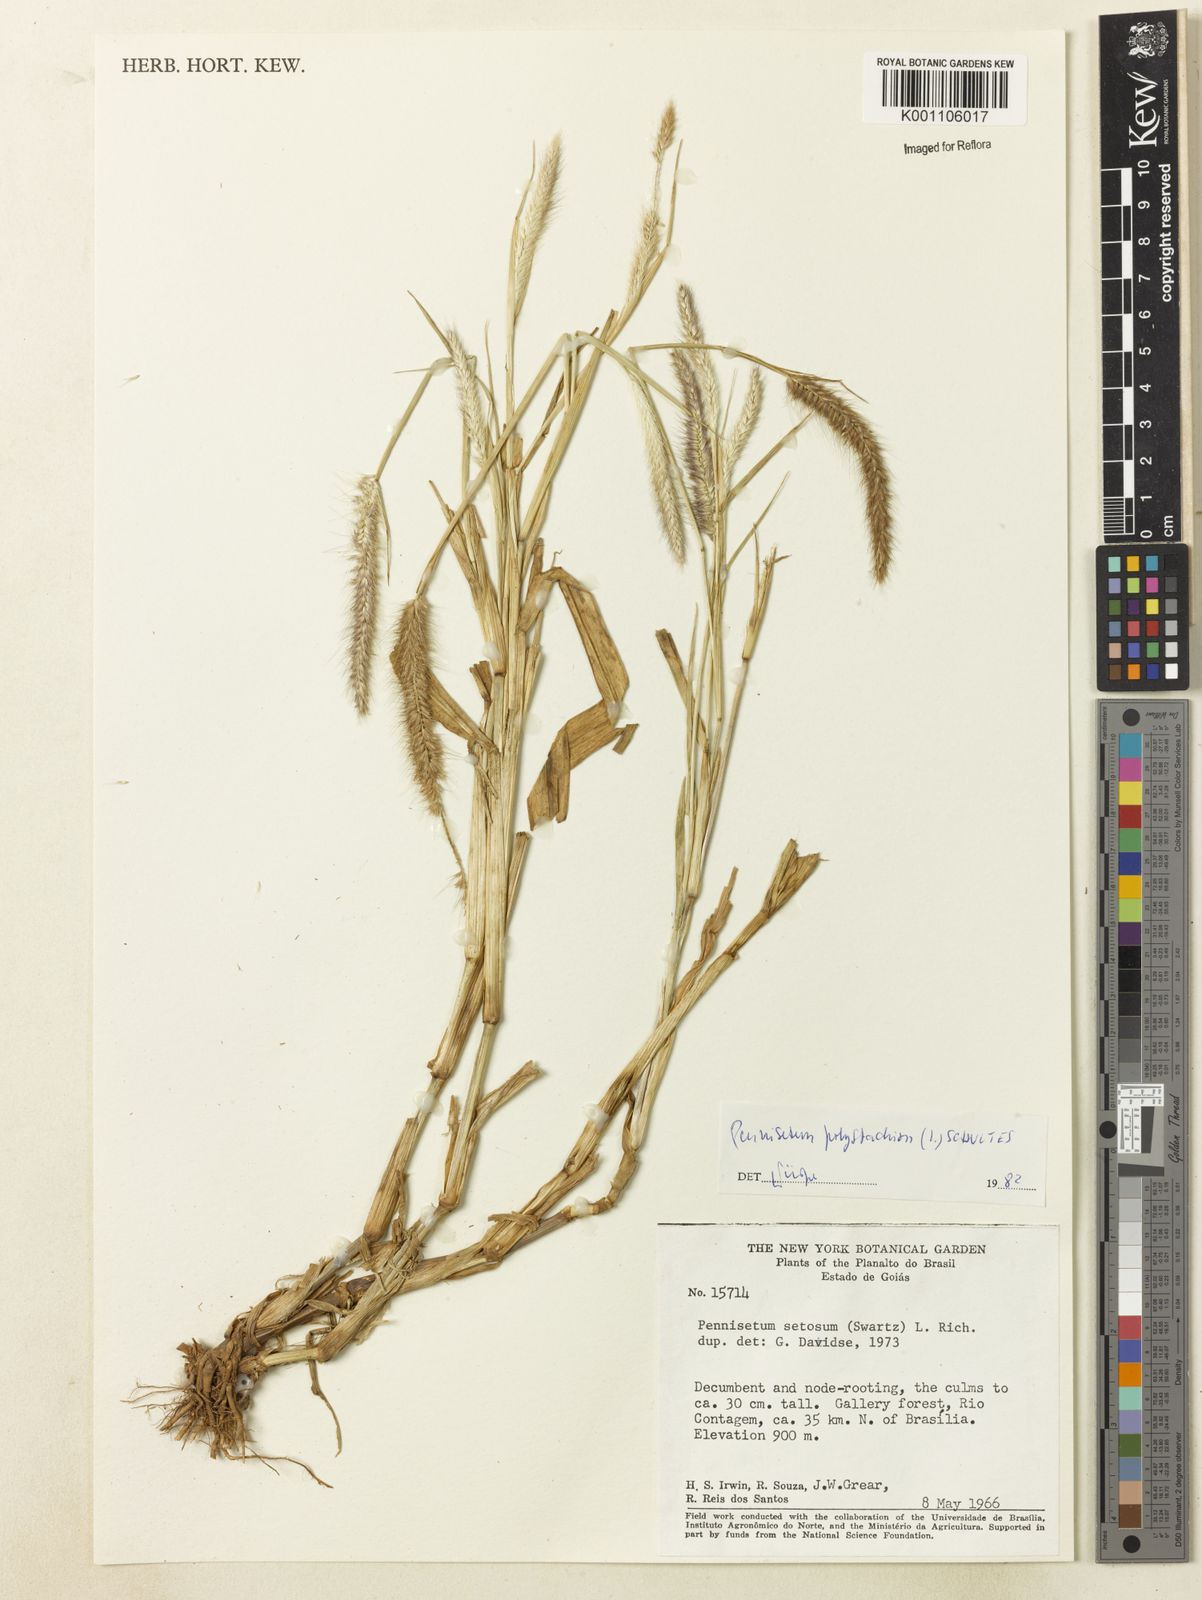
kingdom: Plantae
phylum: Tracheophyta
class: Liliopsida
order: Poales
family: Poaceae
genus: Setaria
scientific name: Setaria parviflora
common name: Knotroot bristle-grass
